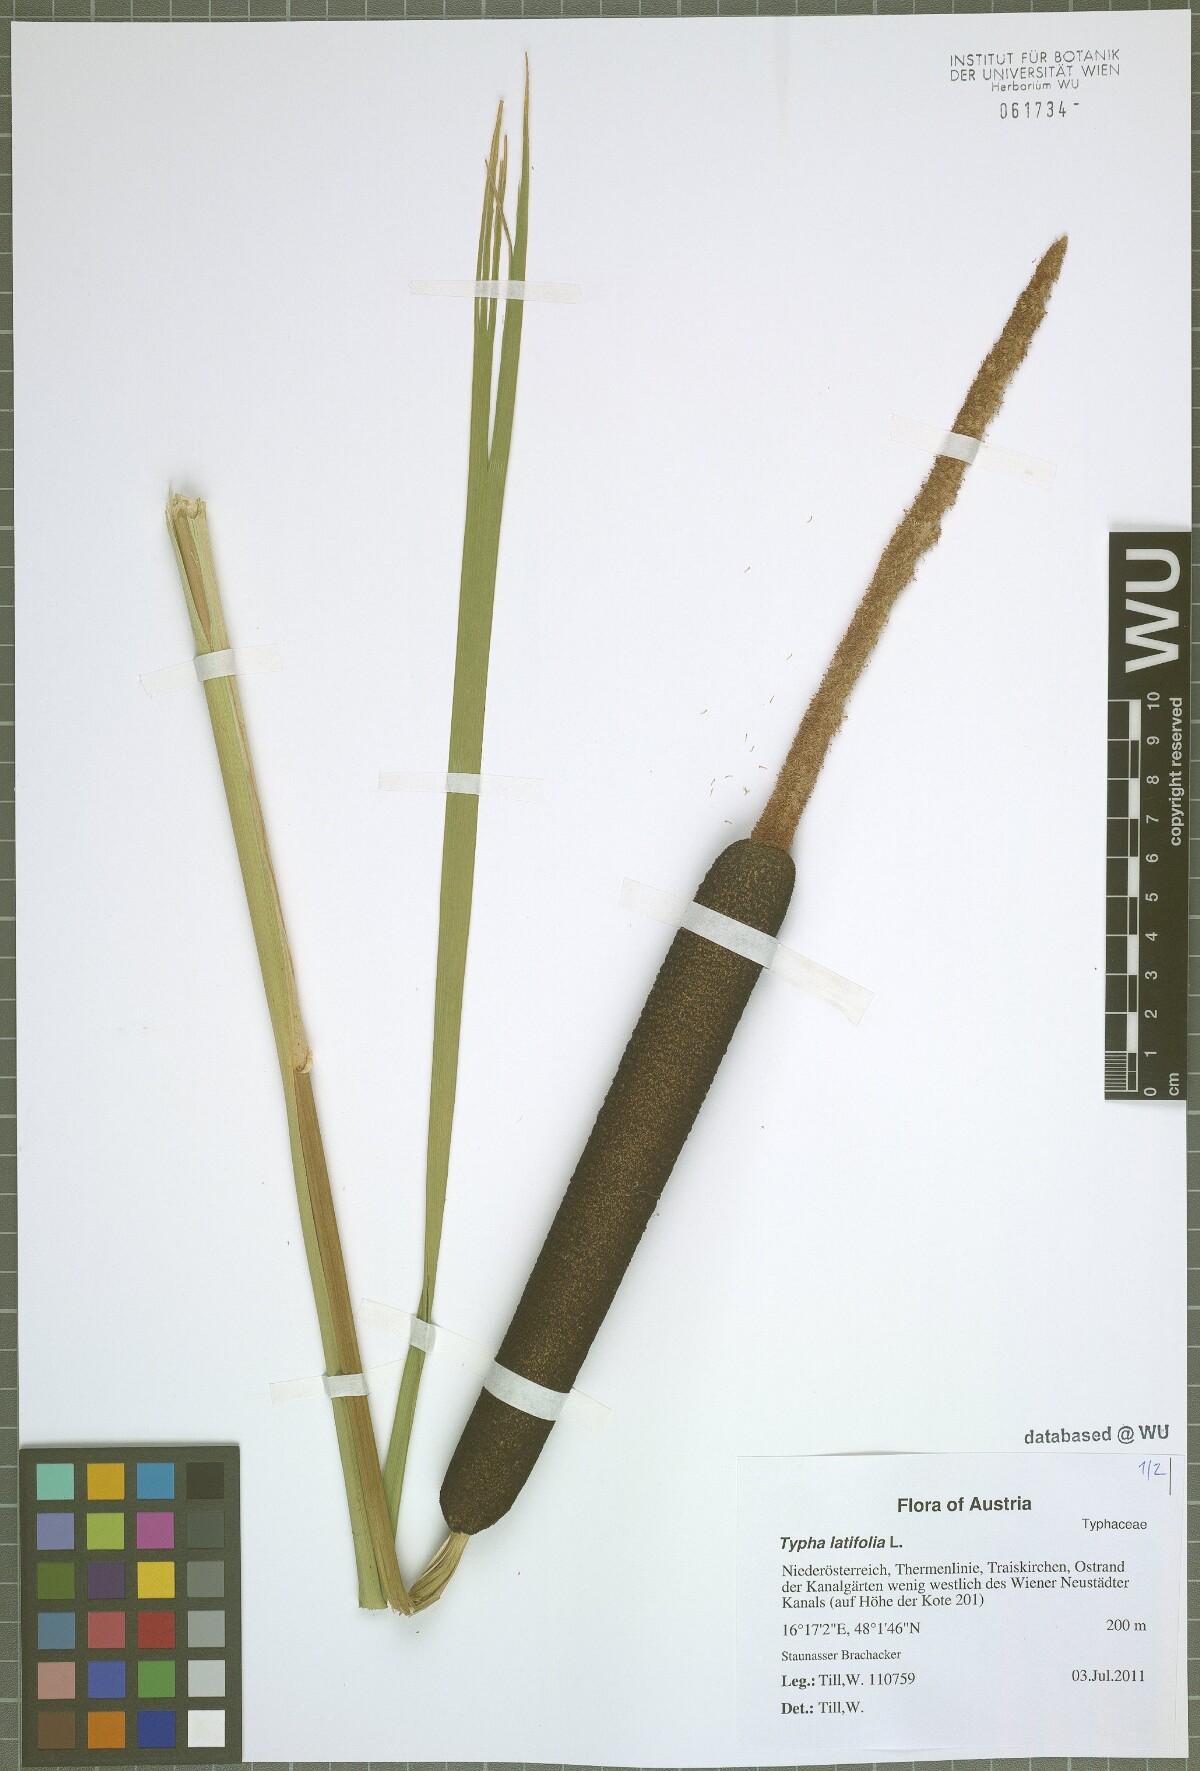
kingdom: Plantae
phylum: Tracheophyta
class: Liliopsida
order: Poales
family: Typhaceae
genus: Typha
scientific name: Typha latifolia
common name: Broadleaf cattail
